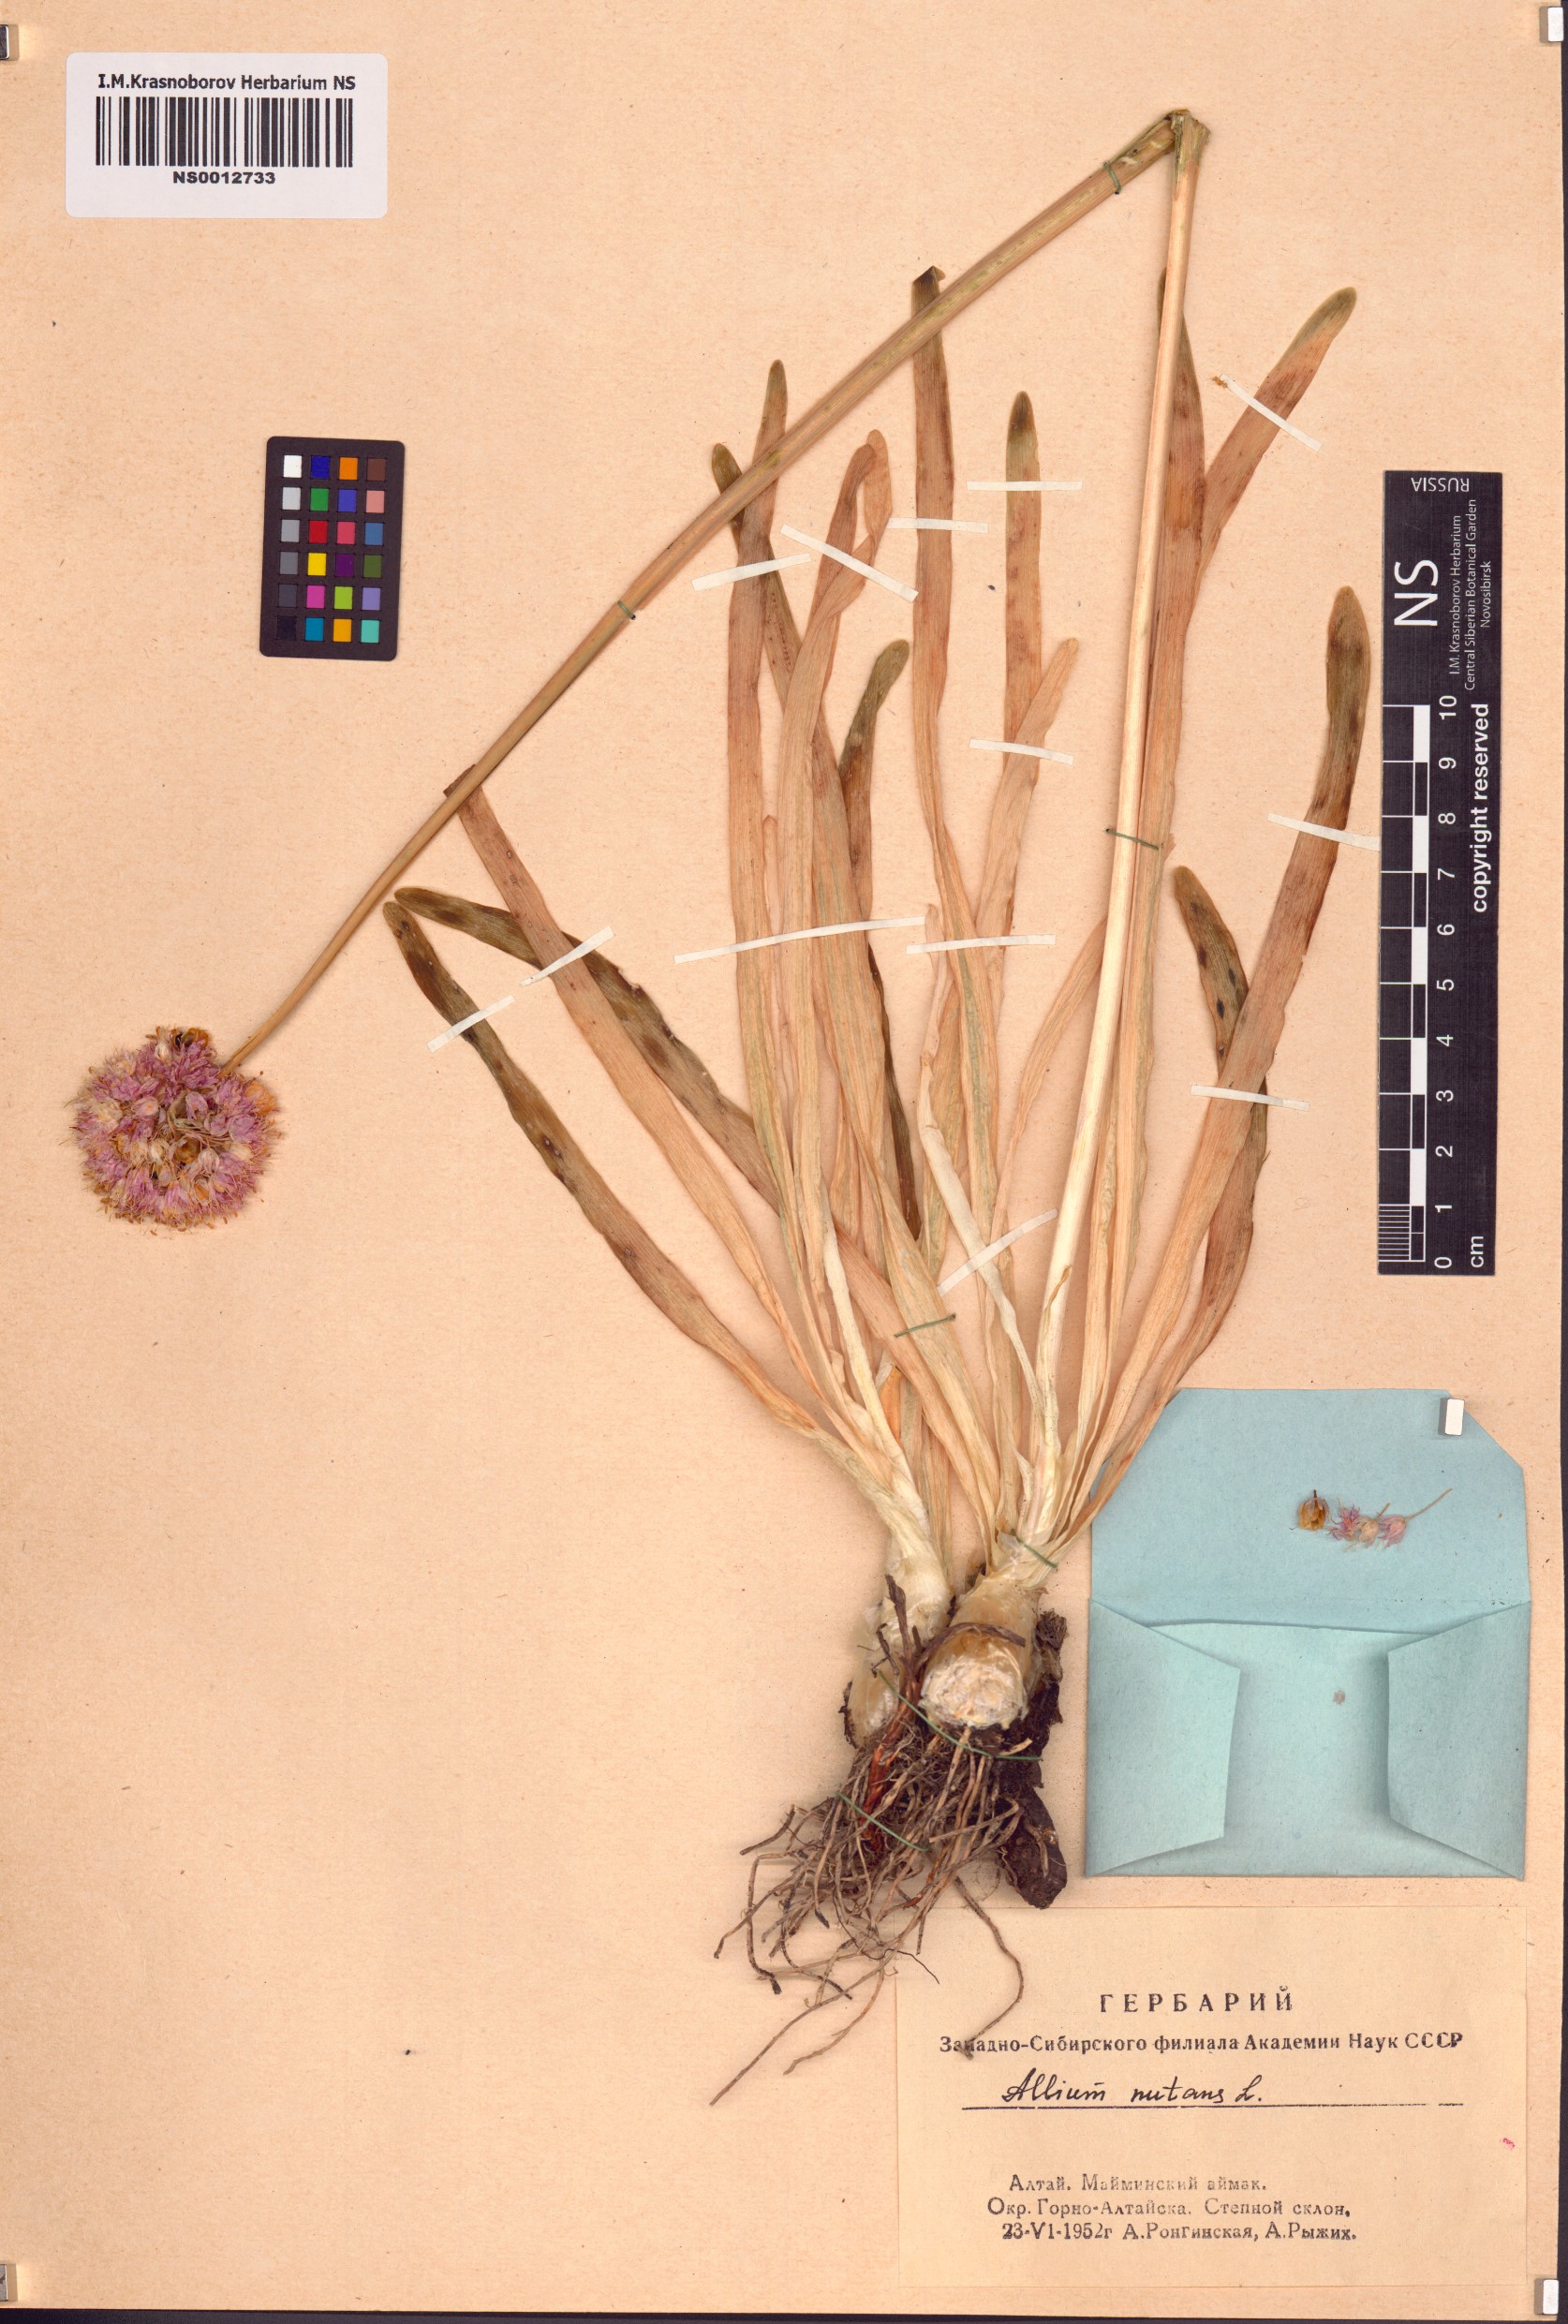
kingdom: Plantae
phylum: Tracheophyta
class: Liliopsida
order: Asparagales
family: Amaryllidaceae
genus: Allium
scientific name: Allium nutans
